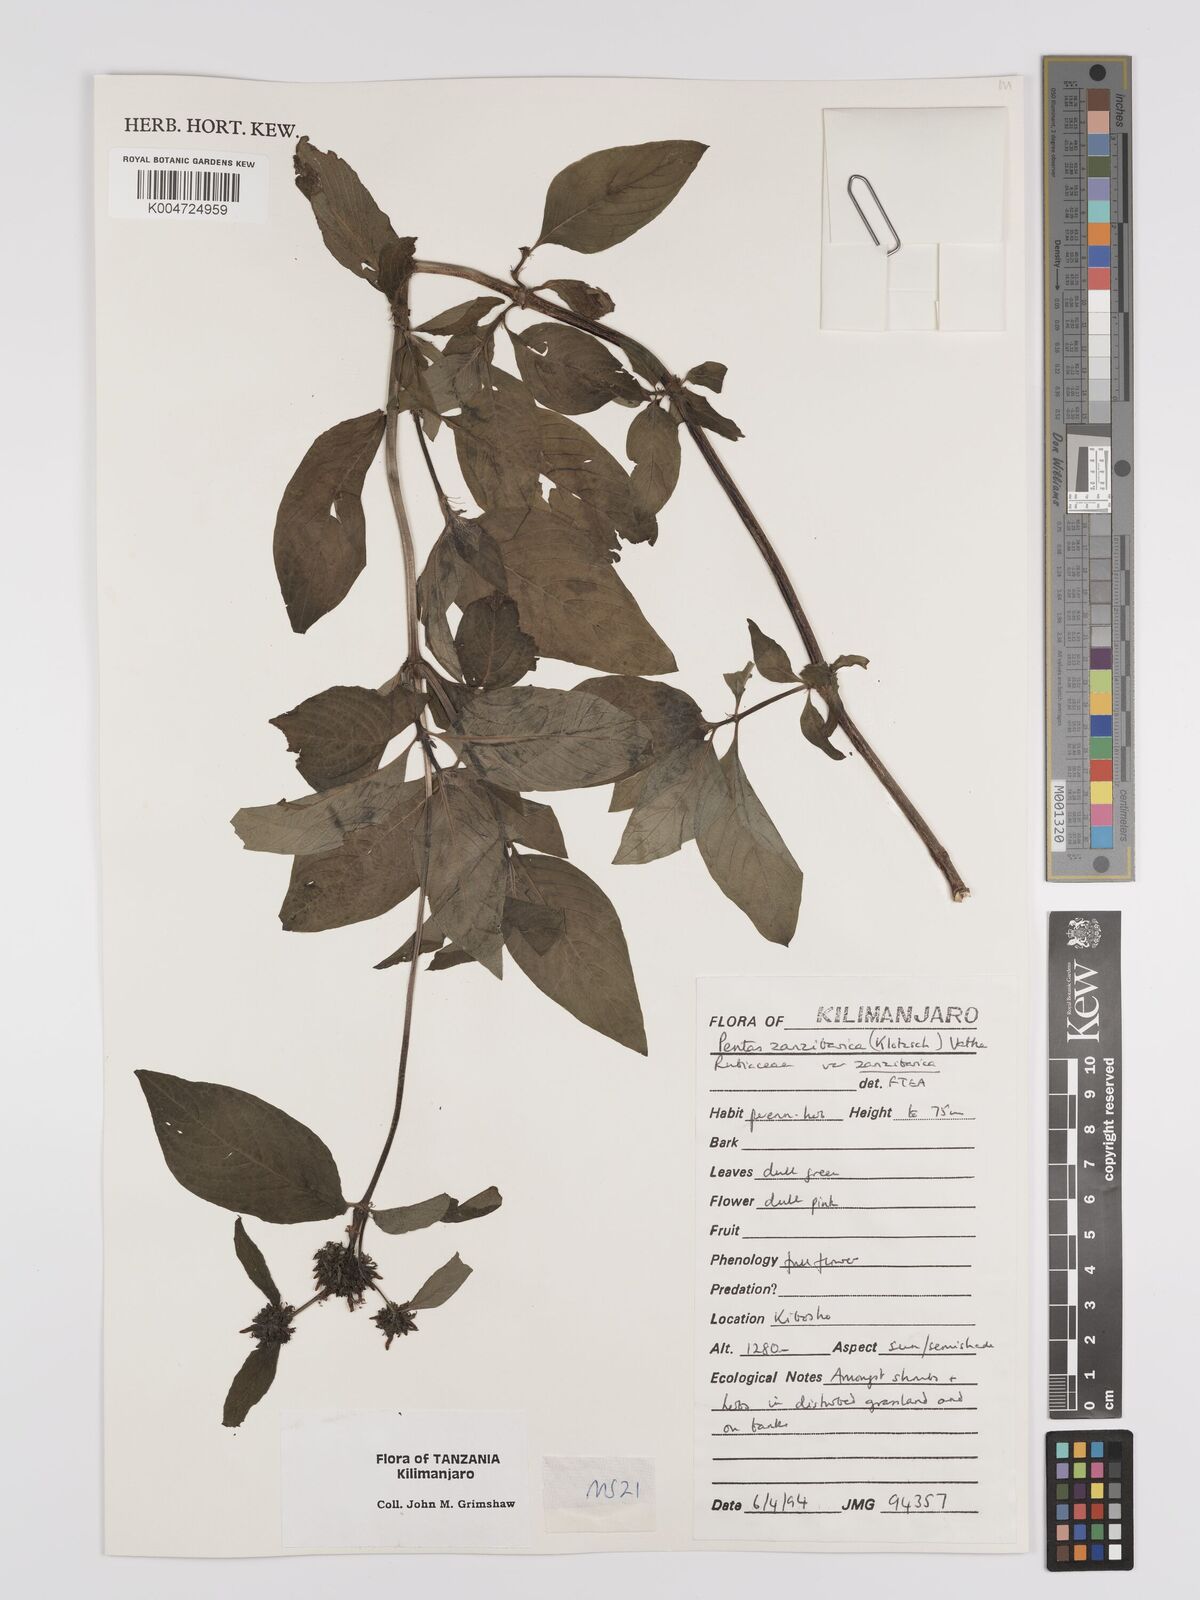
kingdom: Plantae
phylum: Tracheophyta
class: Magnoliopsida
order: Gentianales
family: Rubiaceae
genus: Pentas
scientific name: Pentas zanzibarica
